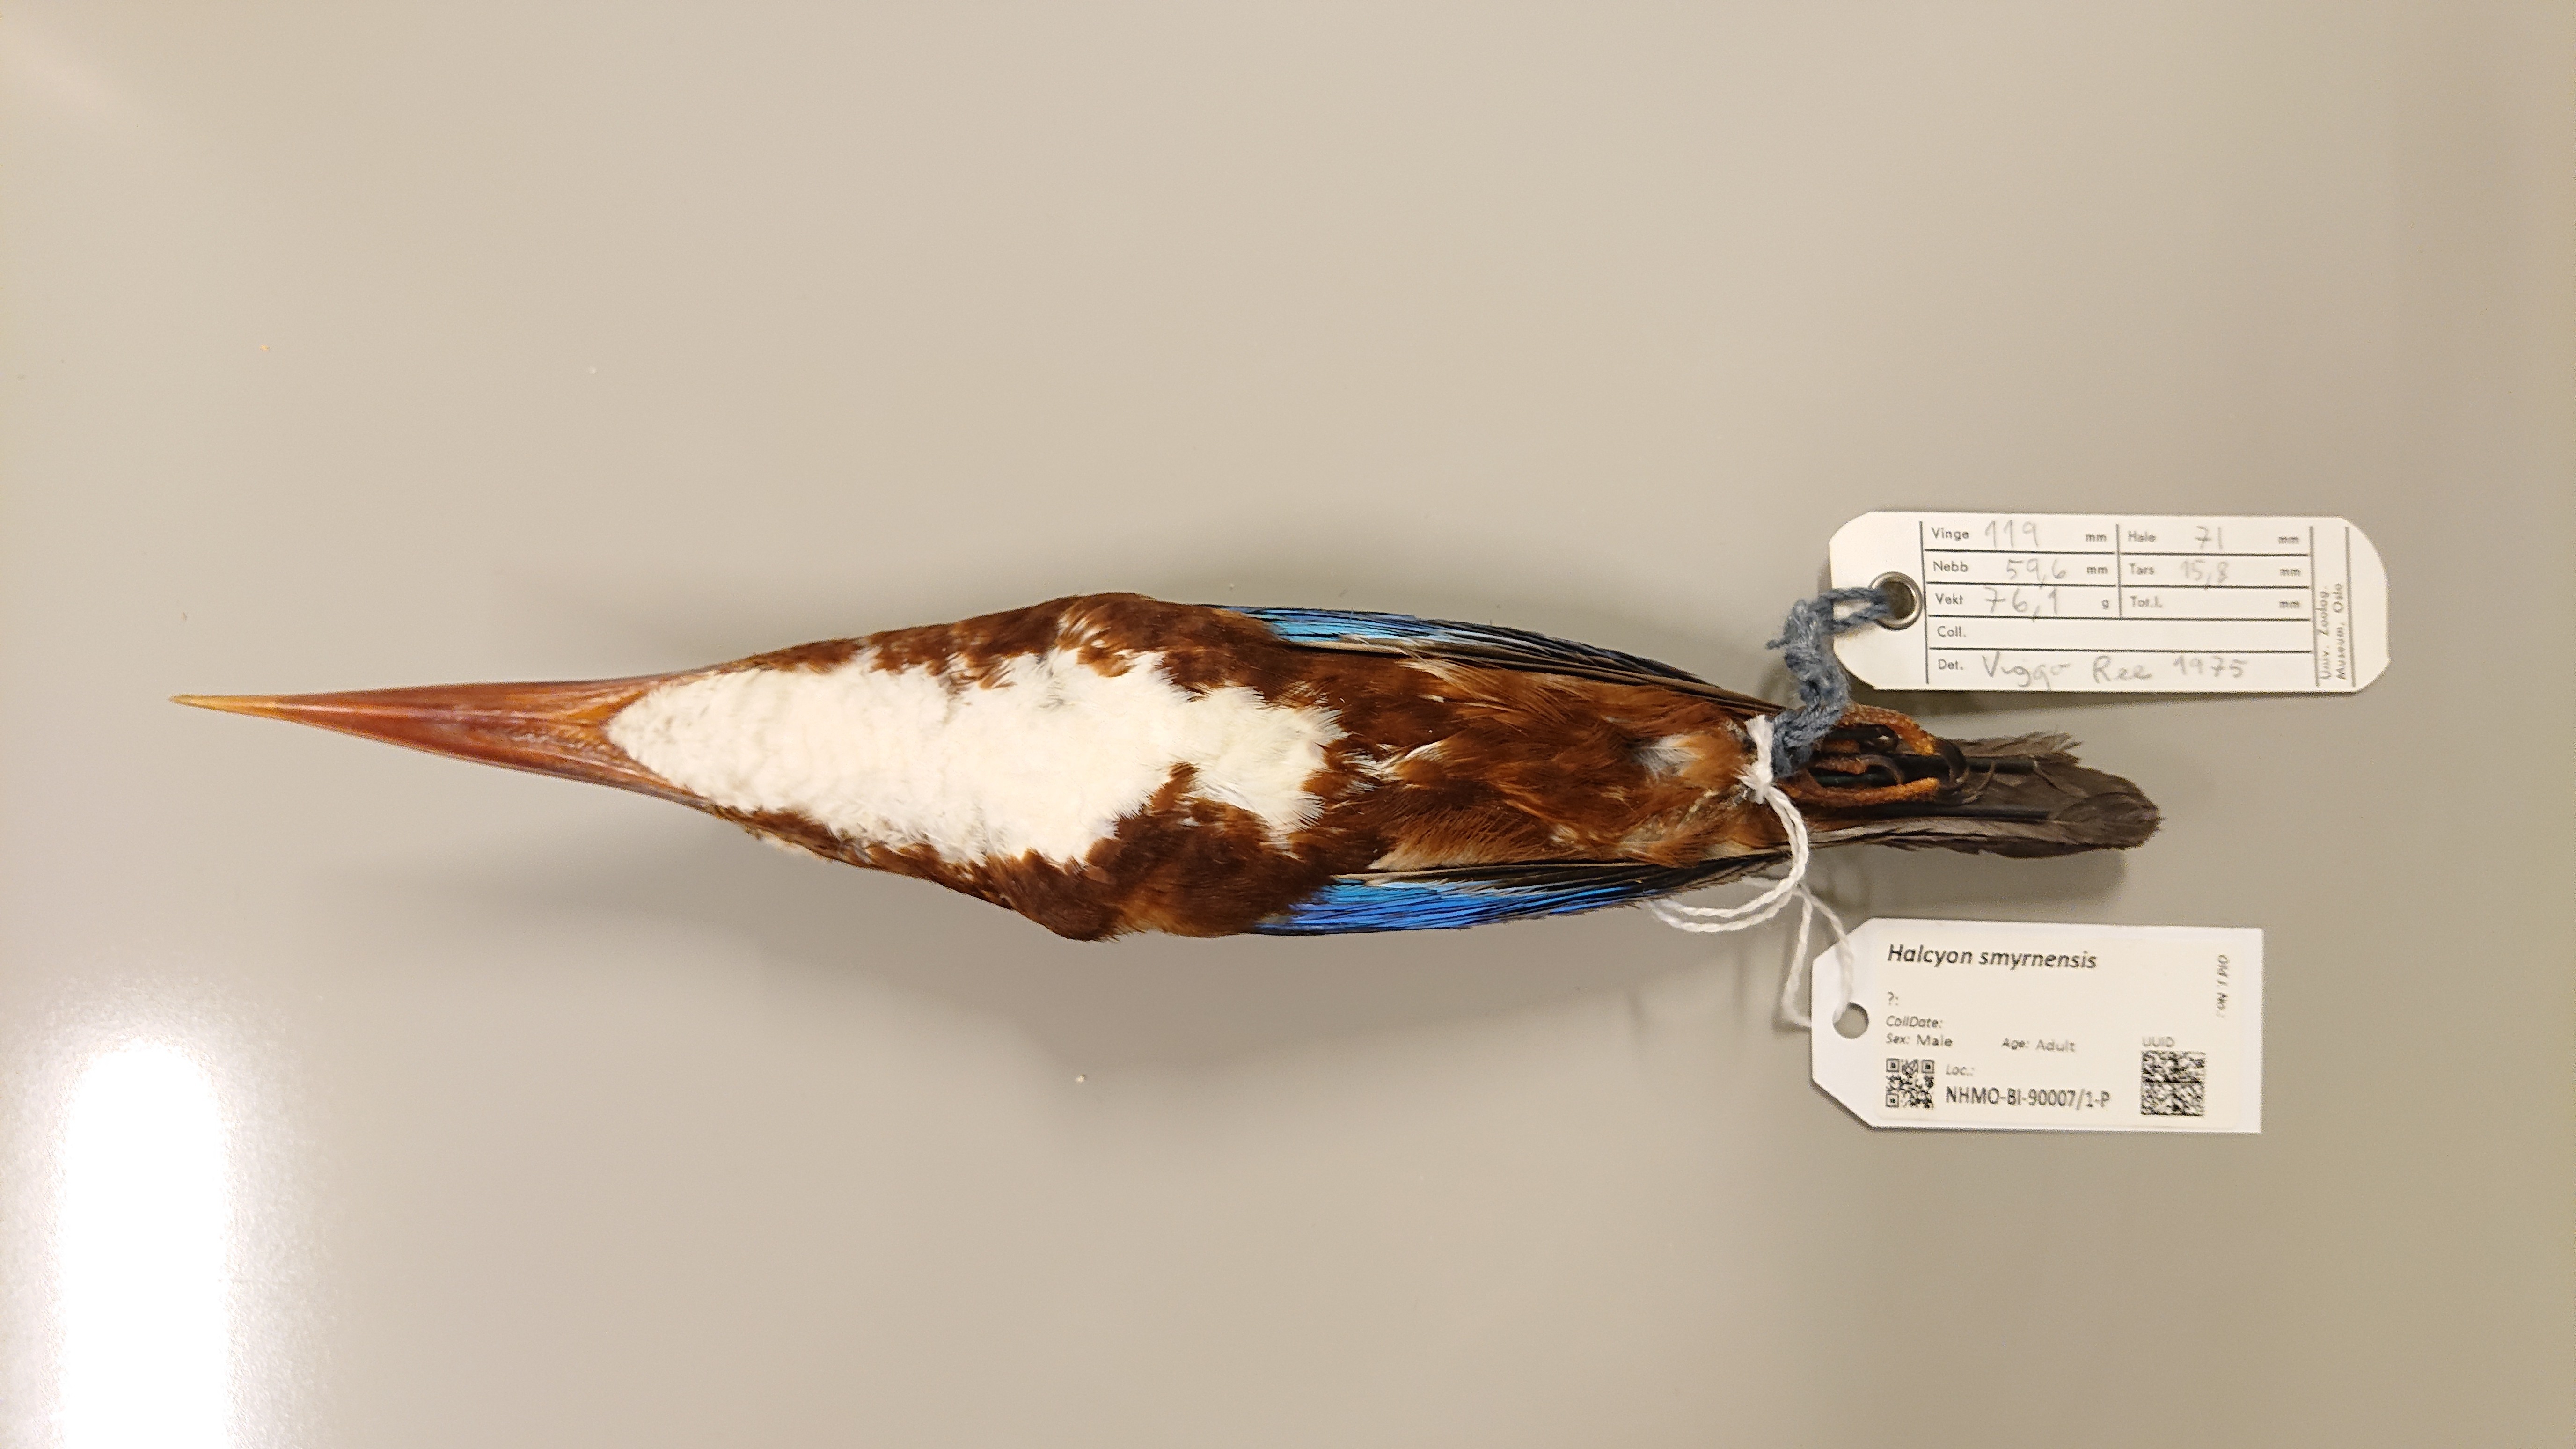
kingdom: Animalia
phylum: Chordata
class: Aves
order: Coraciiformes
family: Alcedinidae
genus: Halcyon
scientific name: Halcyon smyrnensis
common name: White-throated kingfisher
